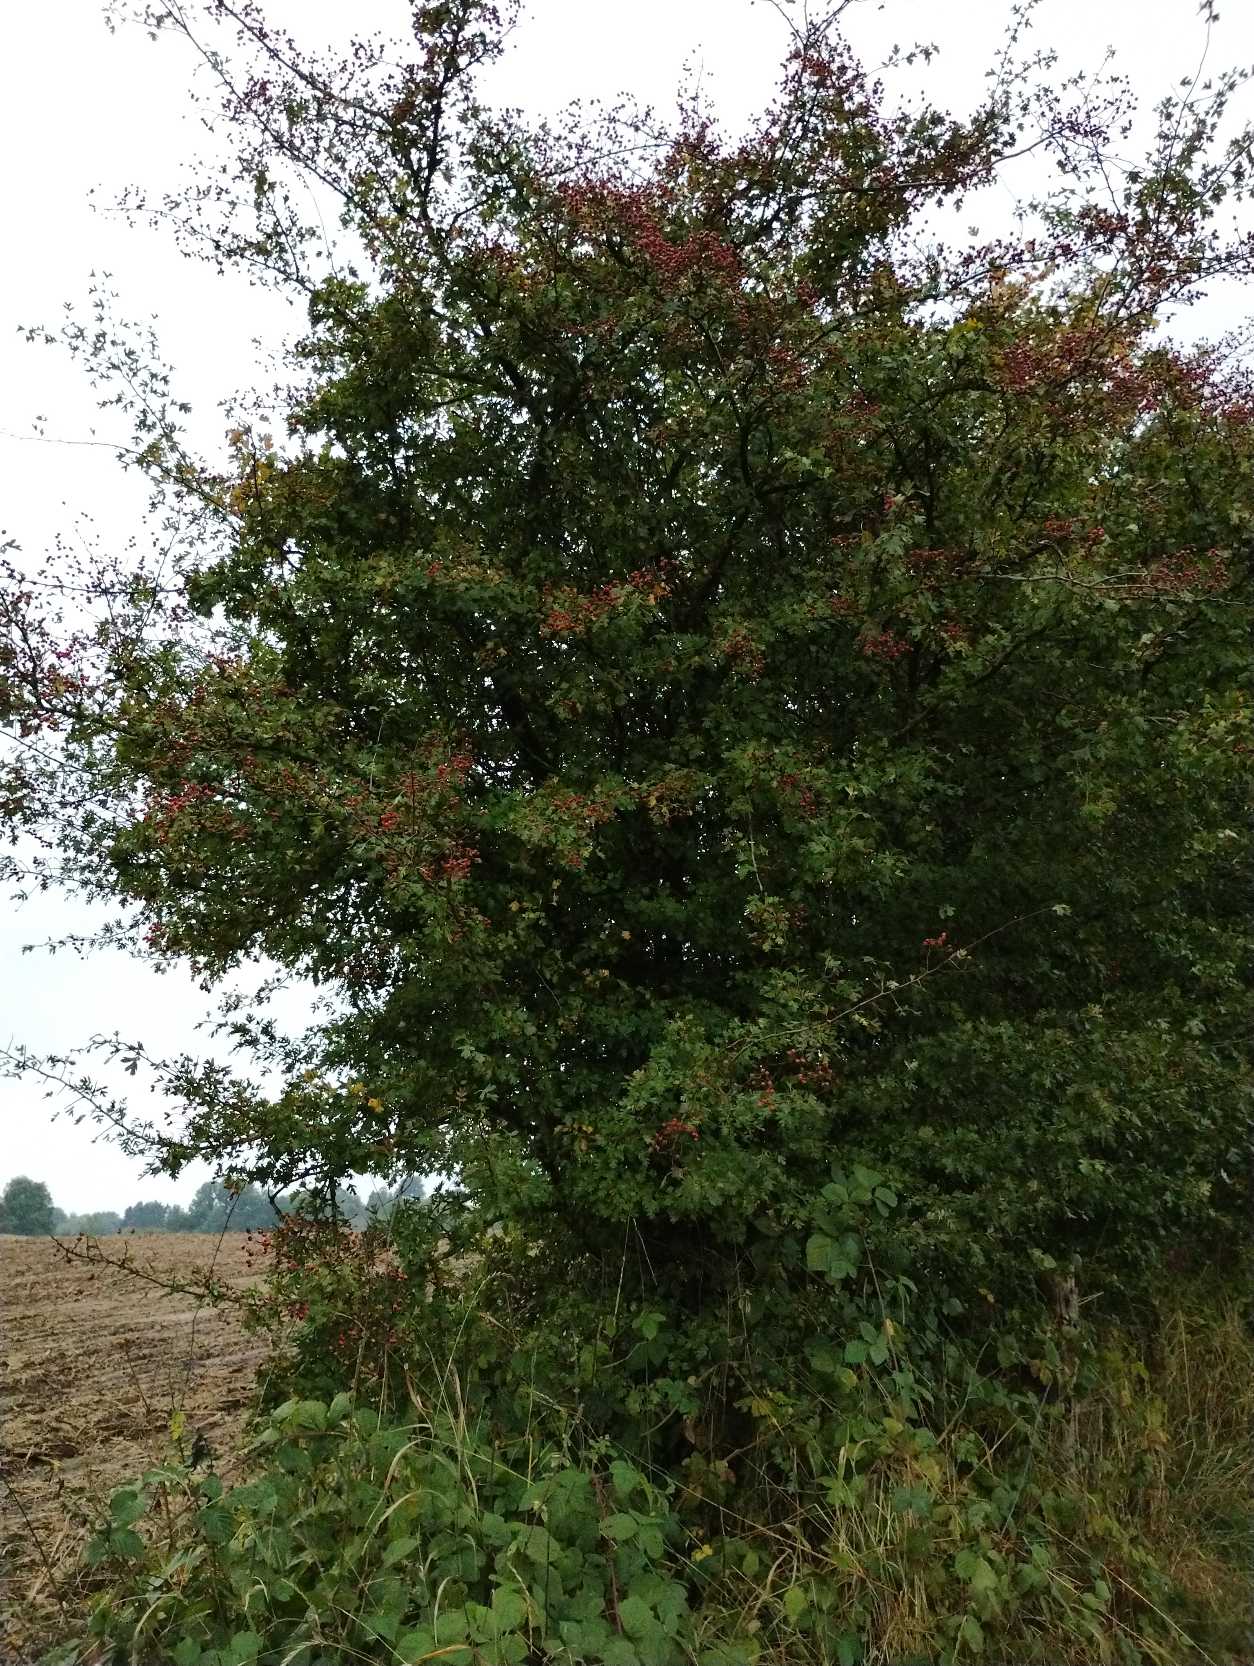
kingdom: Plantae
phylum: Tracheophyta
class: Magnoliopsida
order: Rosales
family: Rosaceae
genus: Crataegus
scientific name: Crataegus monogyna
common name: Engriflet hvidtjørn
